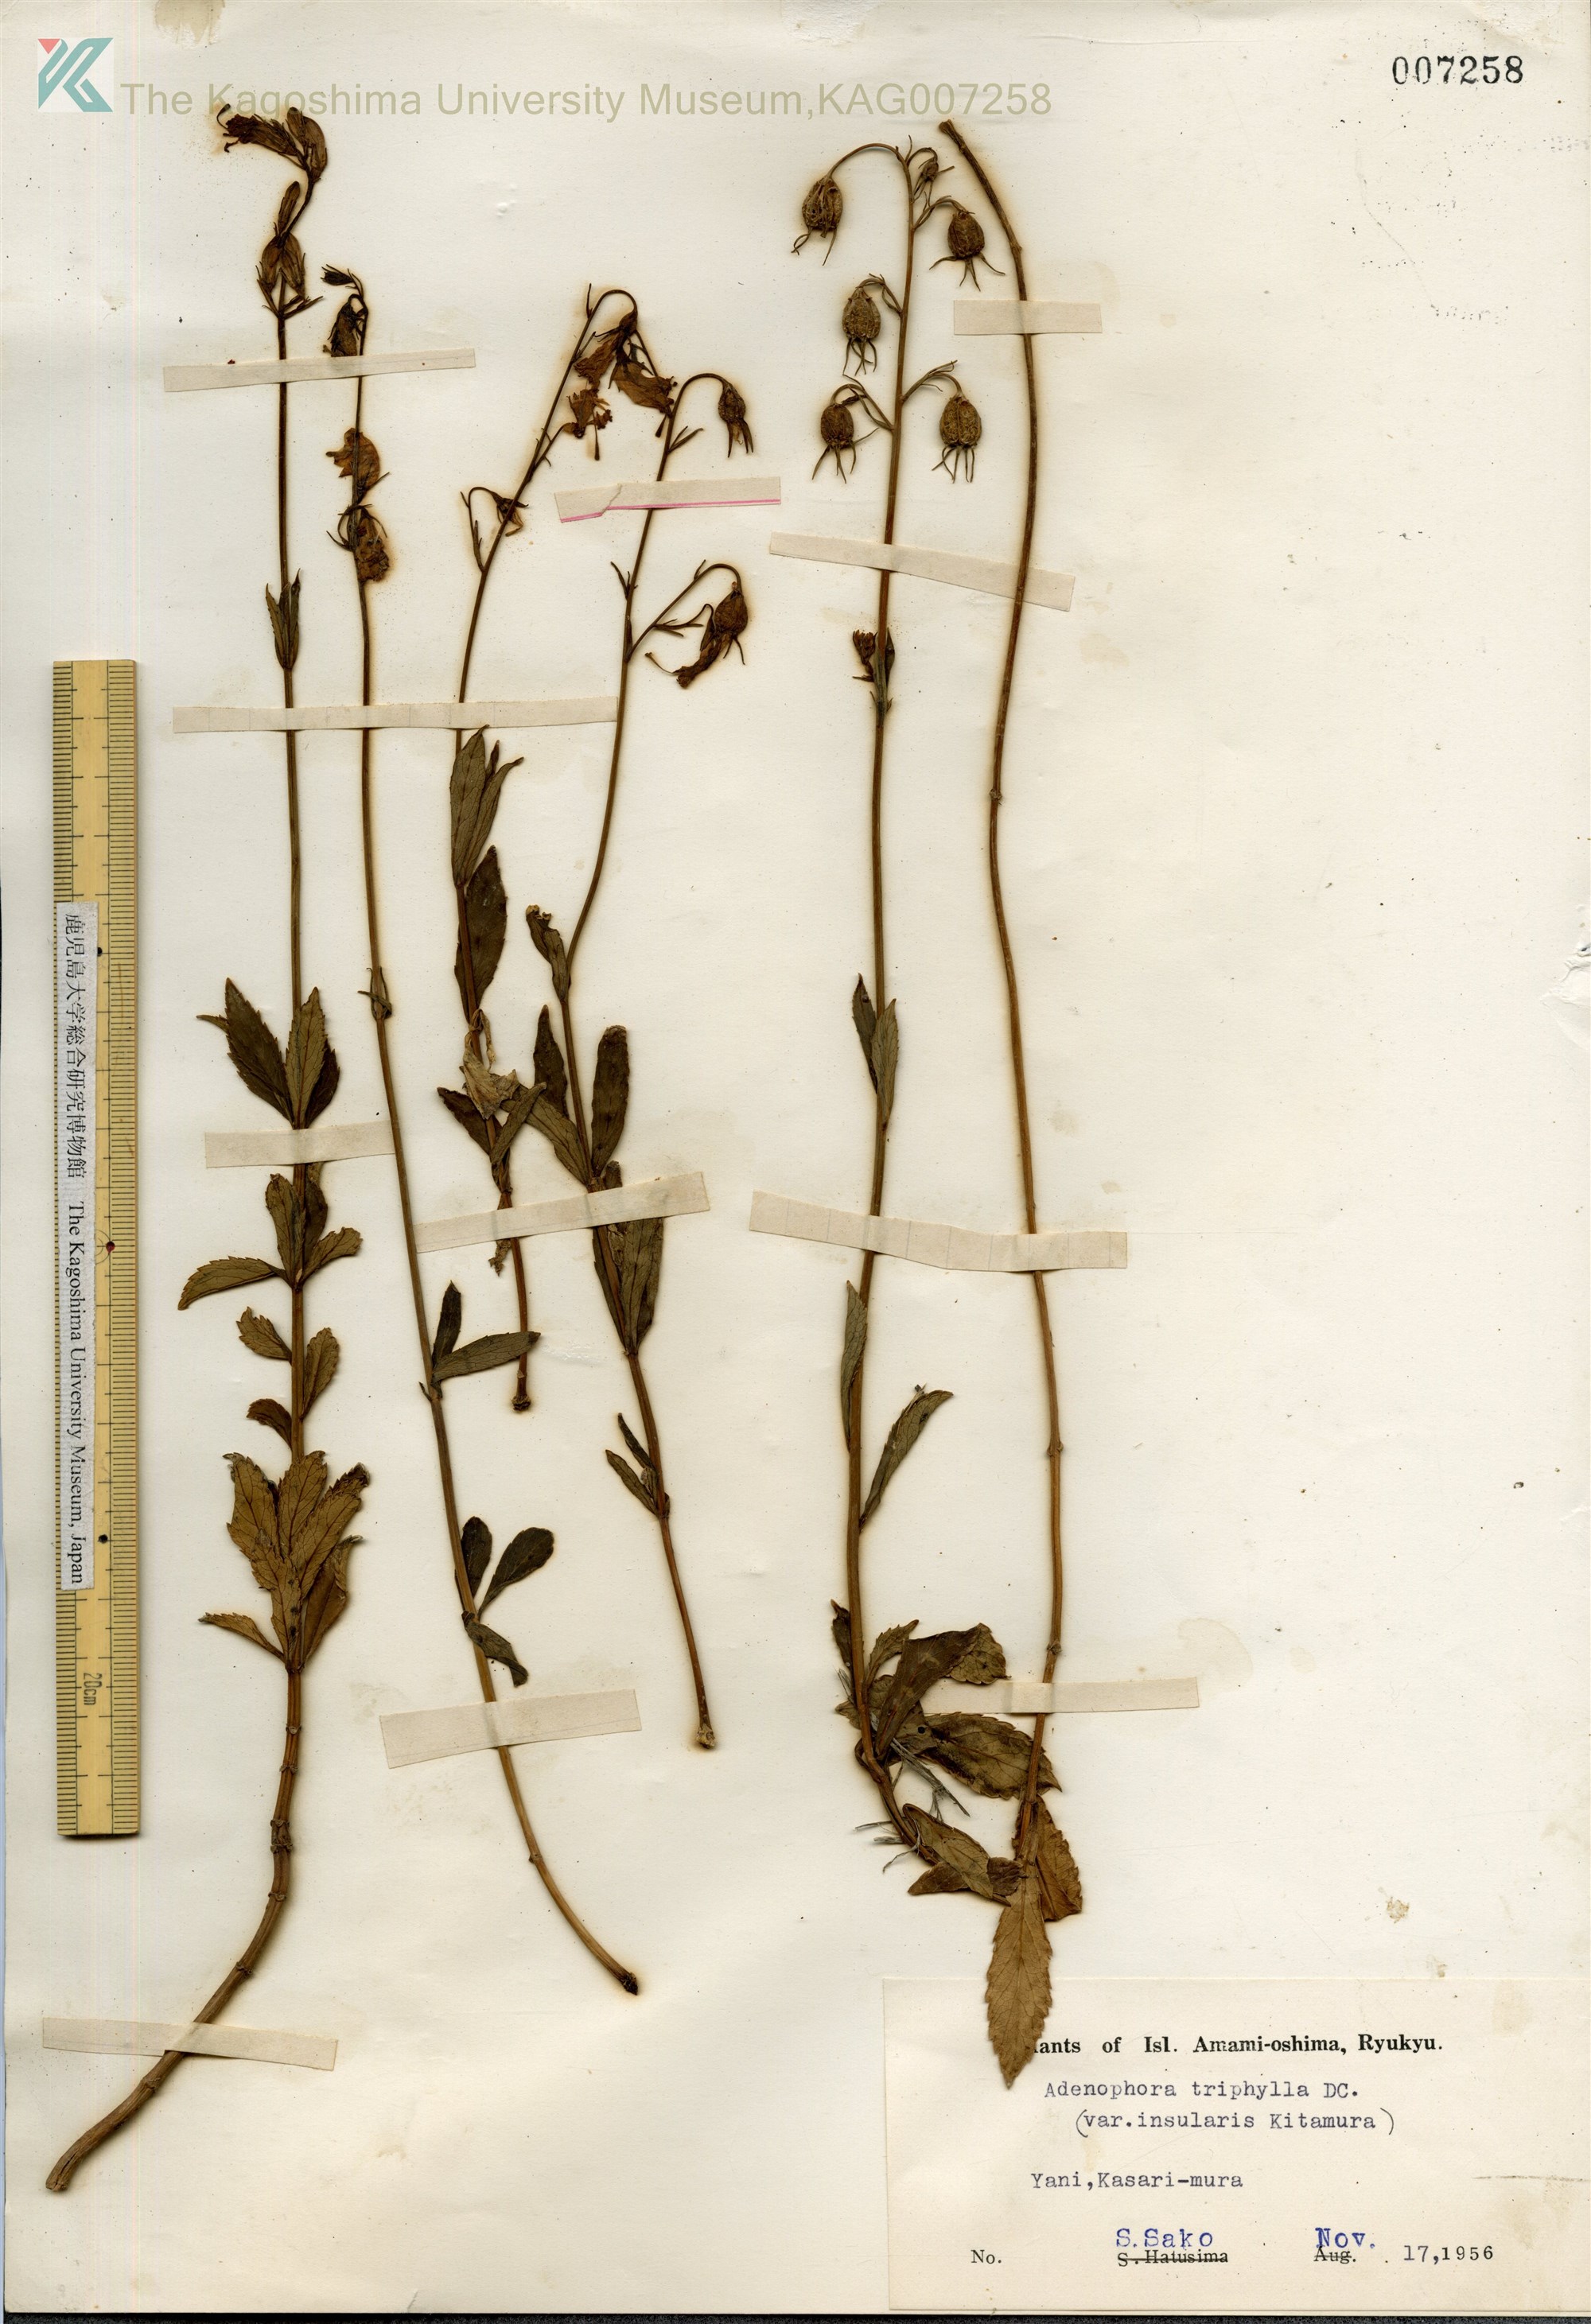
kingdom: Plantae
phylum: Tracheophyta
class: Magnoliopsida
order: Asterales
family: Campanulaceae
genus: Adenophora
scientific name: Adenophora tashiroi
